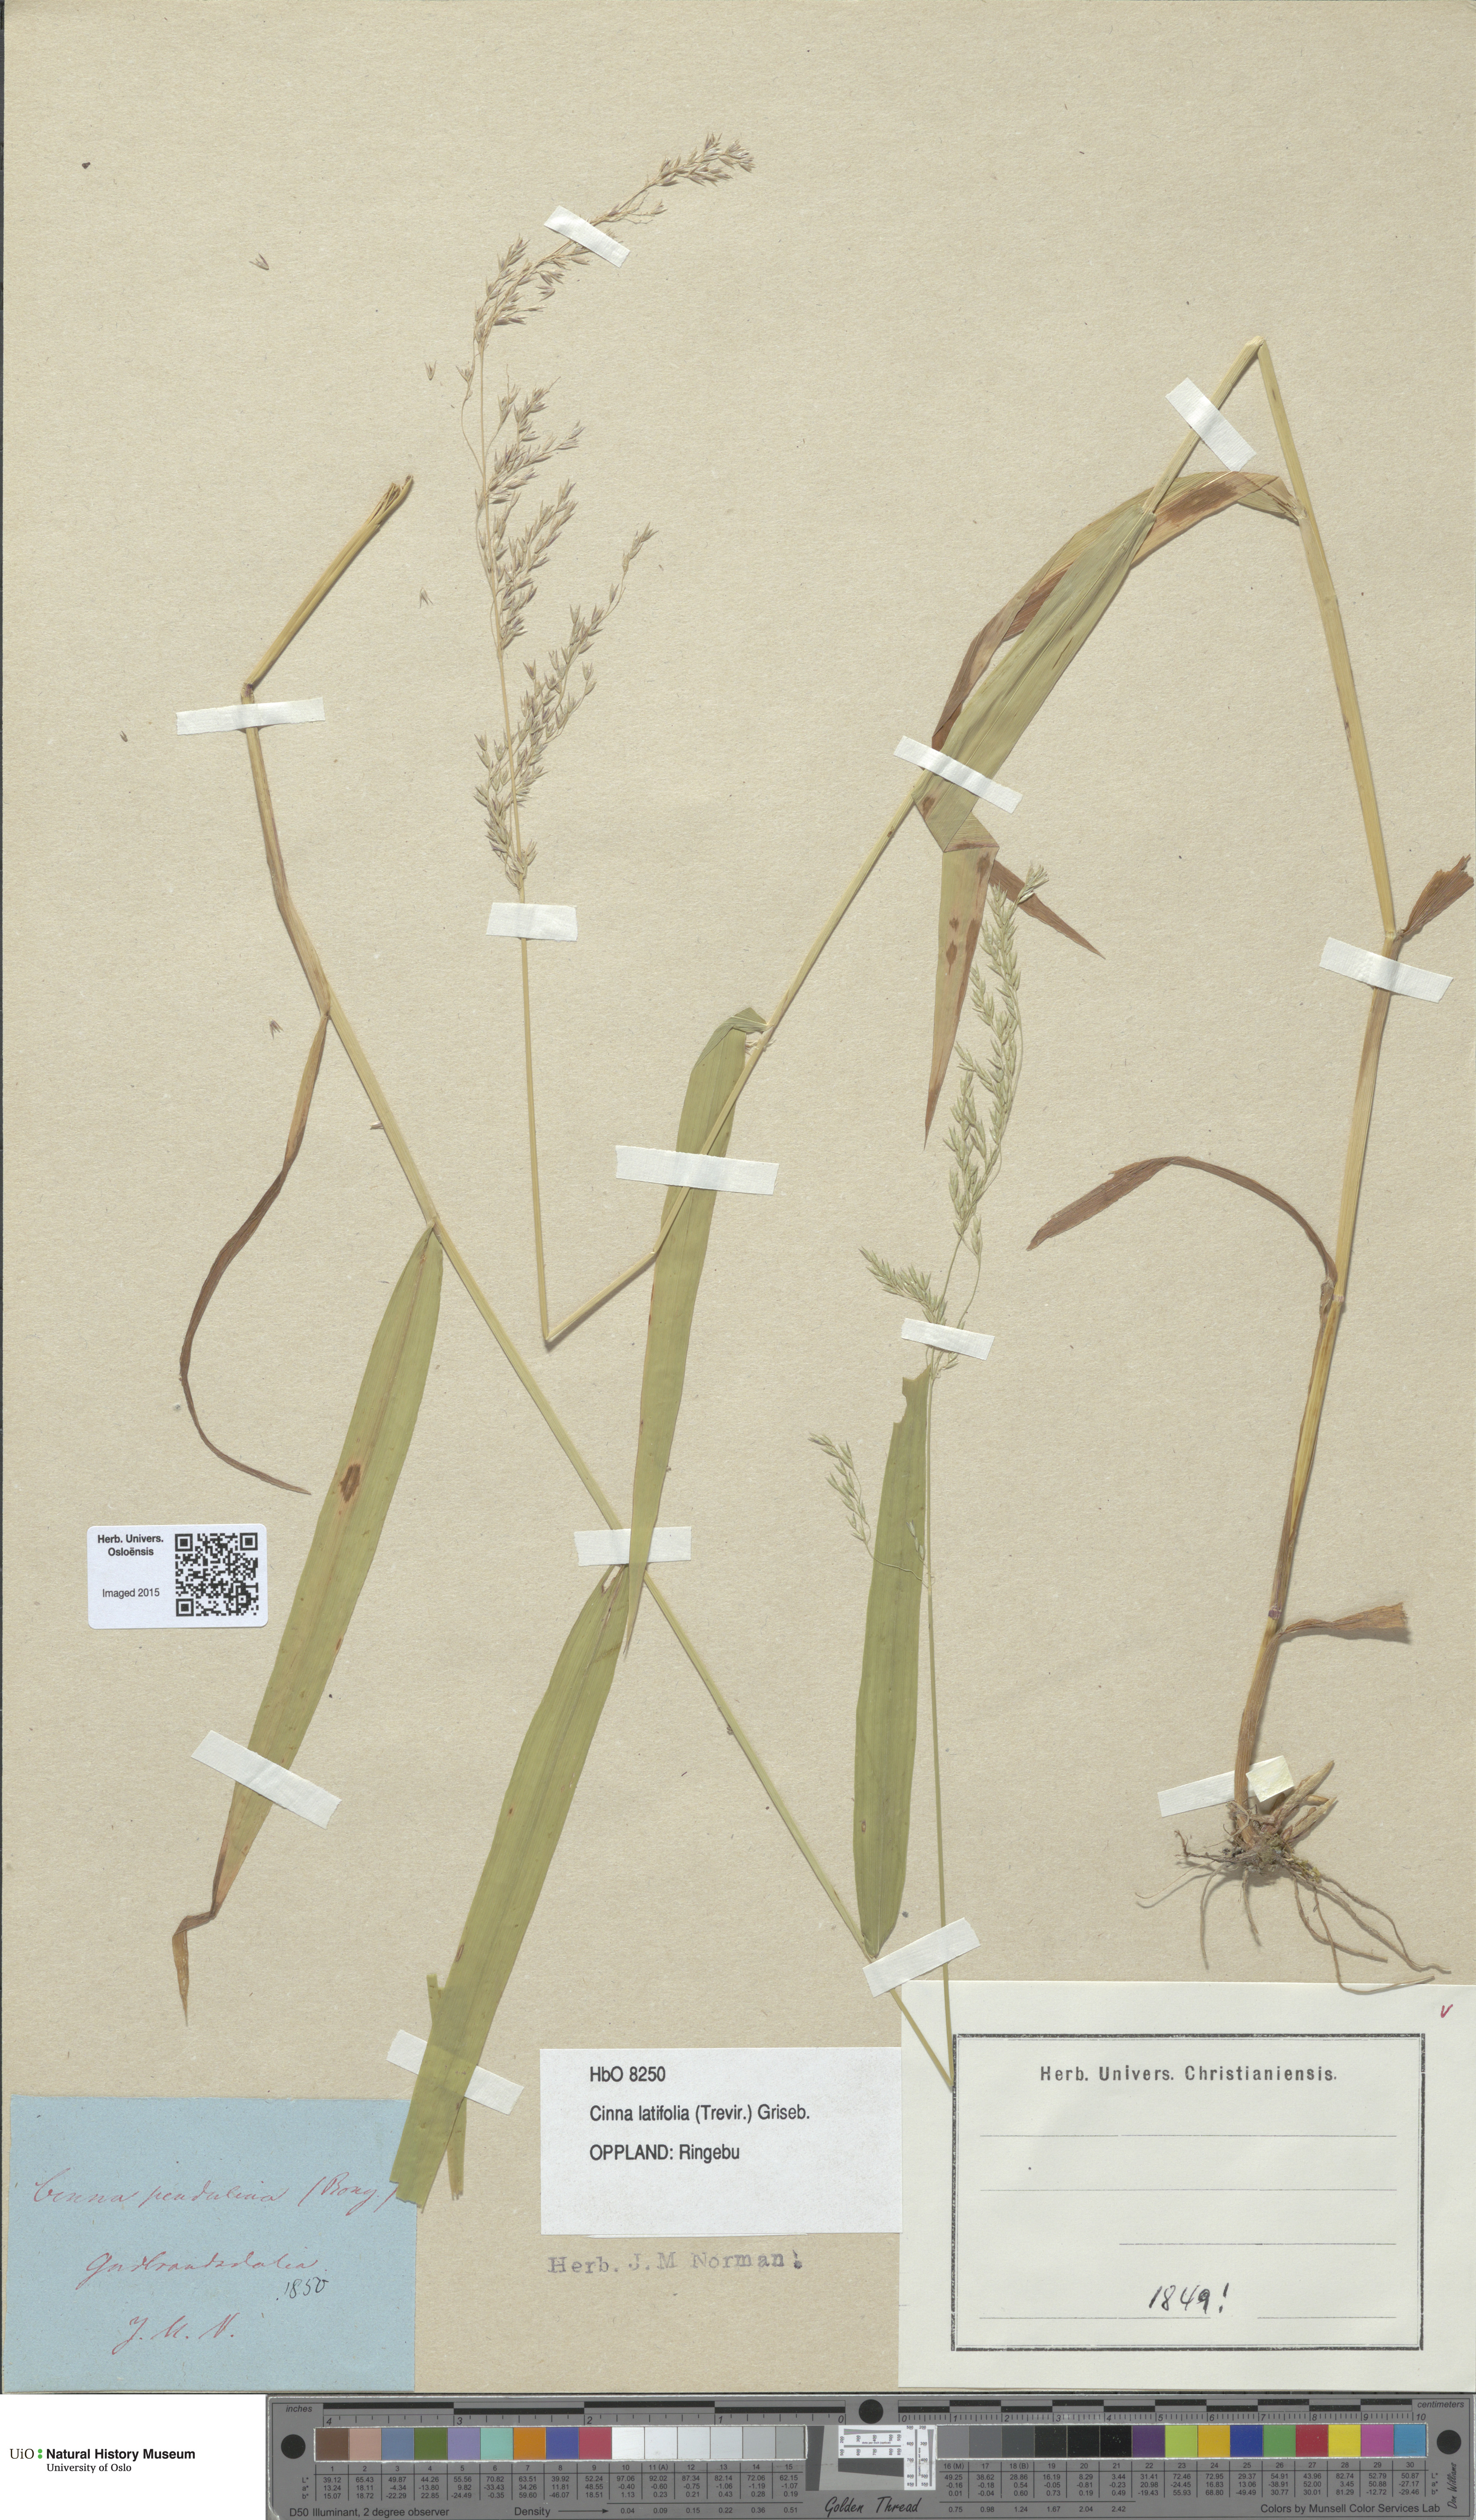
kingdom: Plantae
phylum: Tracheophyta
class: Liliopsida
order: Poales
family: Poaceae
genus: Cinna
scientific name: Cinna latifolia
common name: Drooping woodreed
